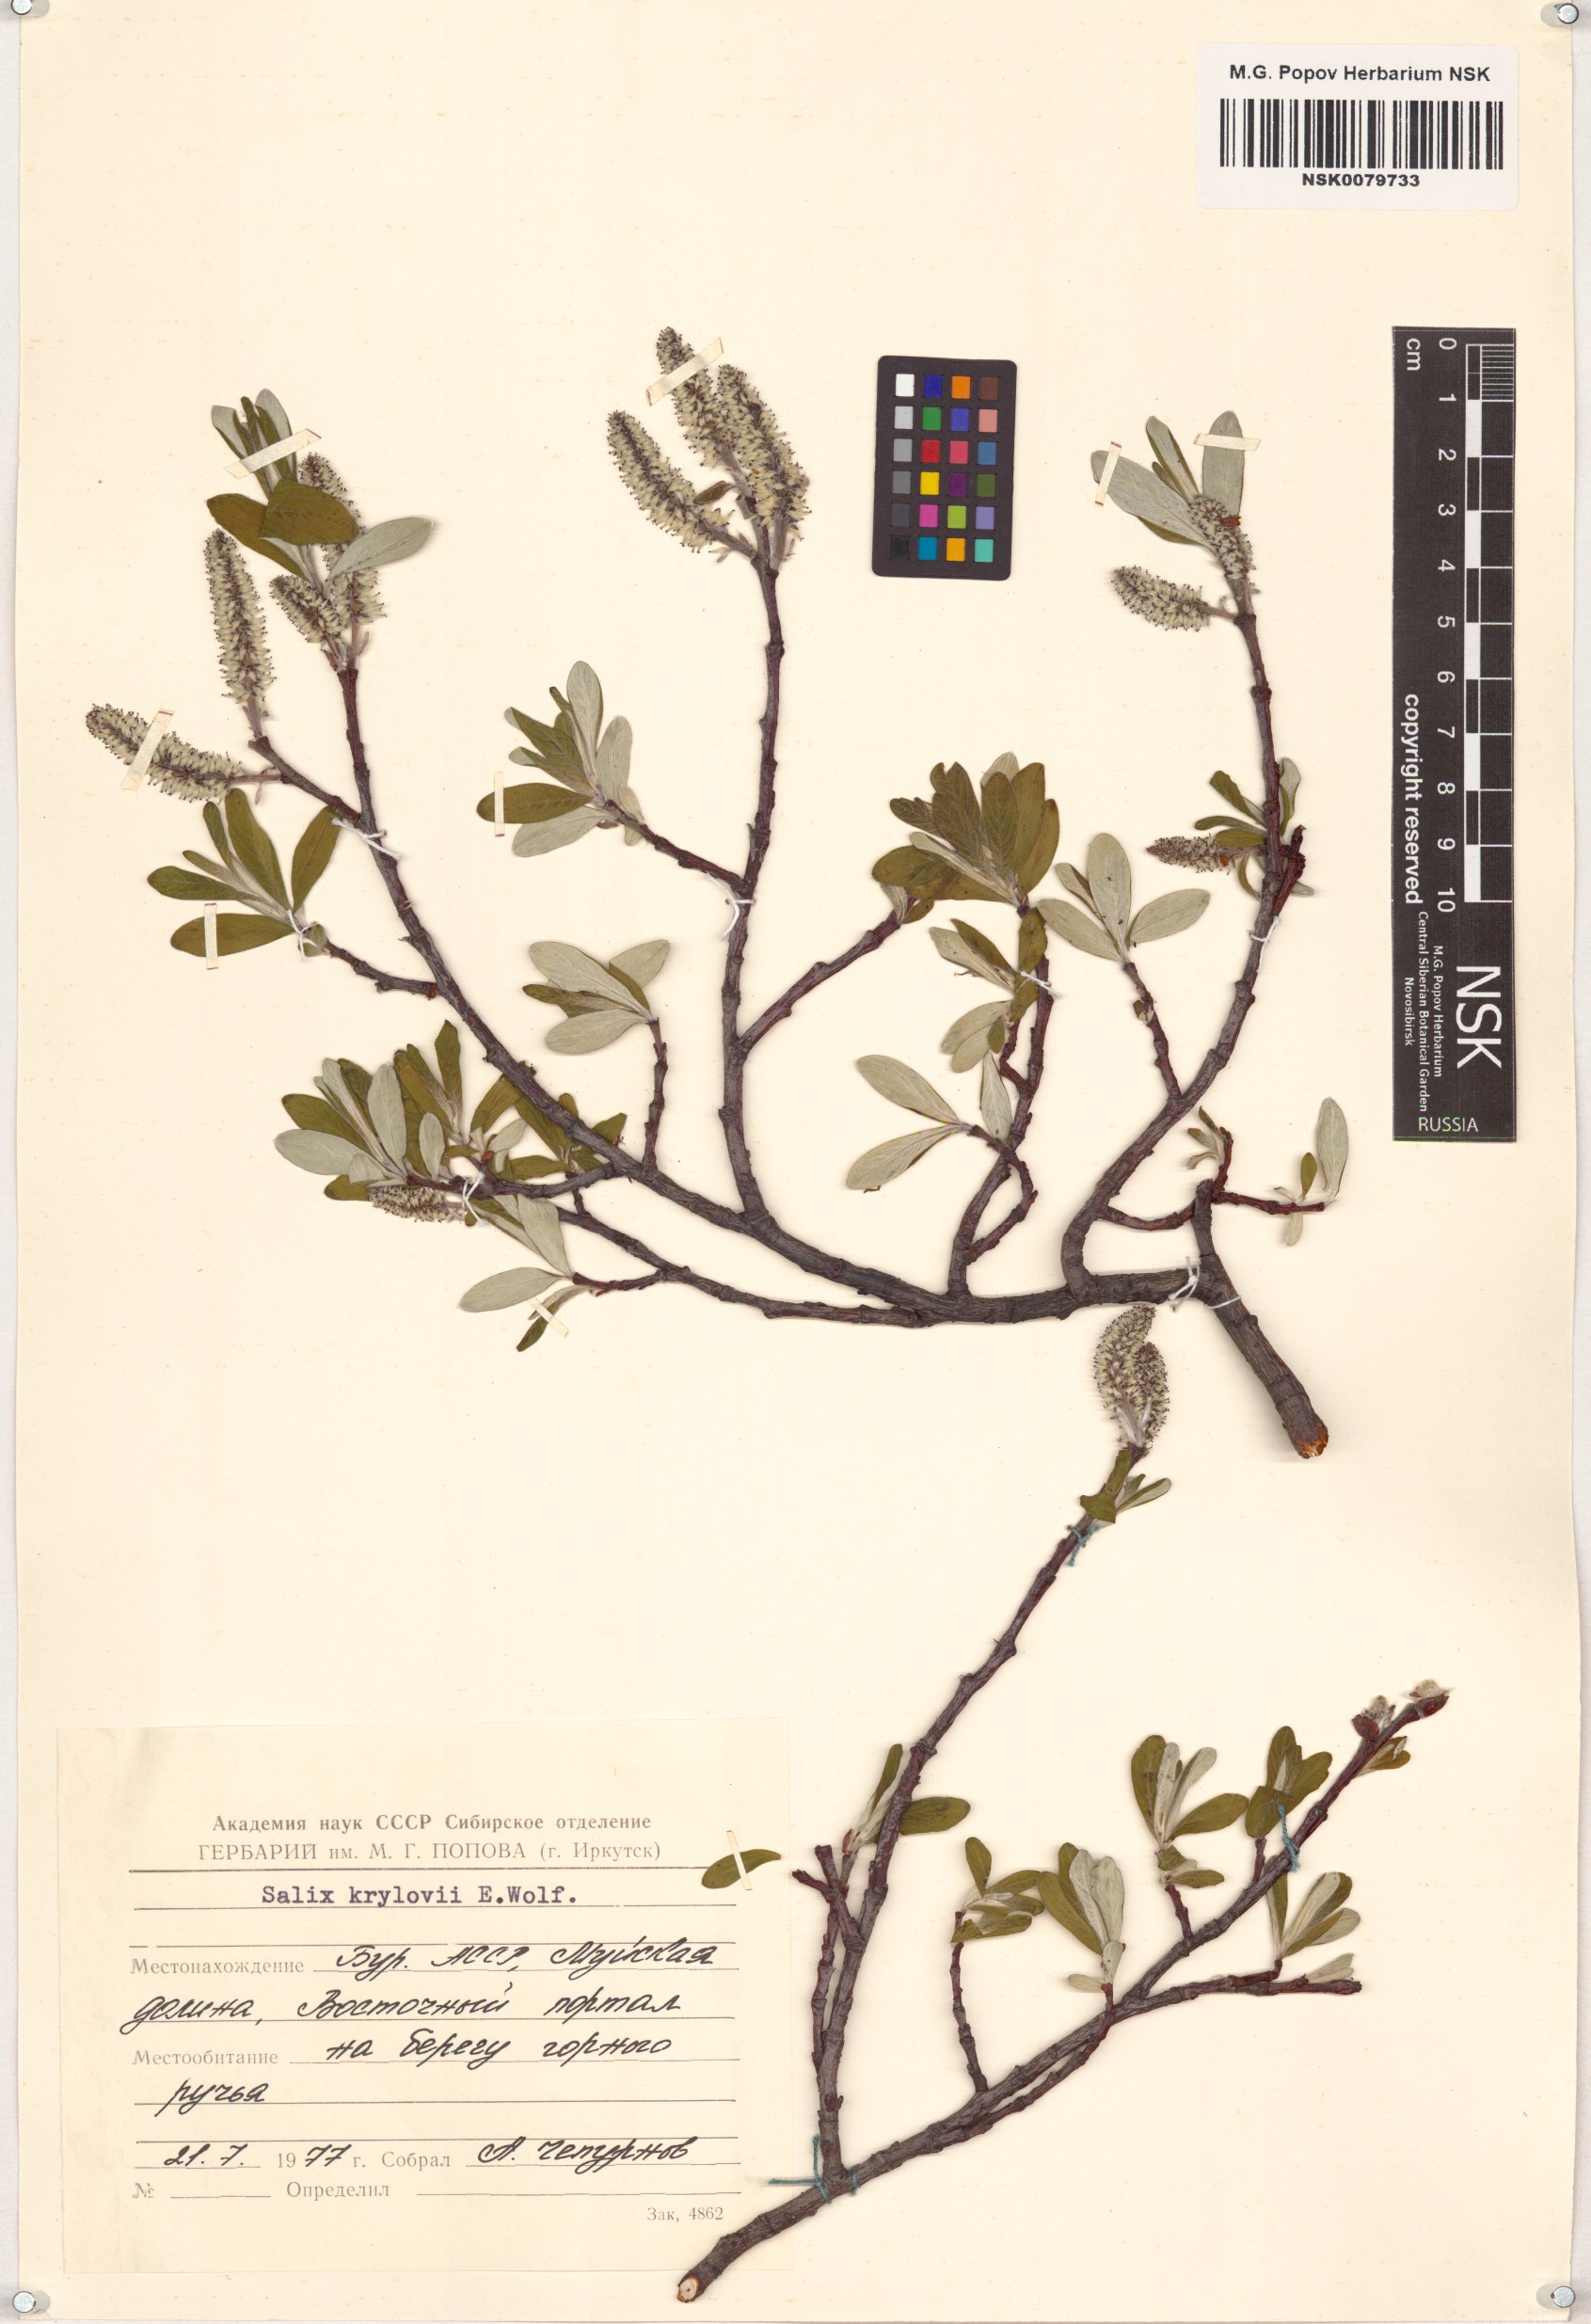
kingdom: Plantae
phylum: Tracheophyta
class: Magnoliopsida
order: Malpighiales
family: Salicaceae
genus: Salix
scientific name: Salix krylovii
